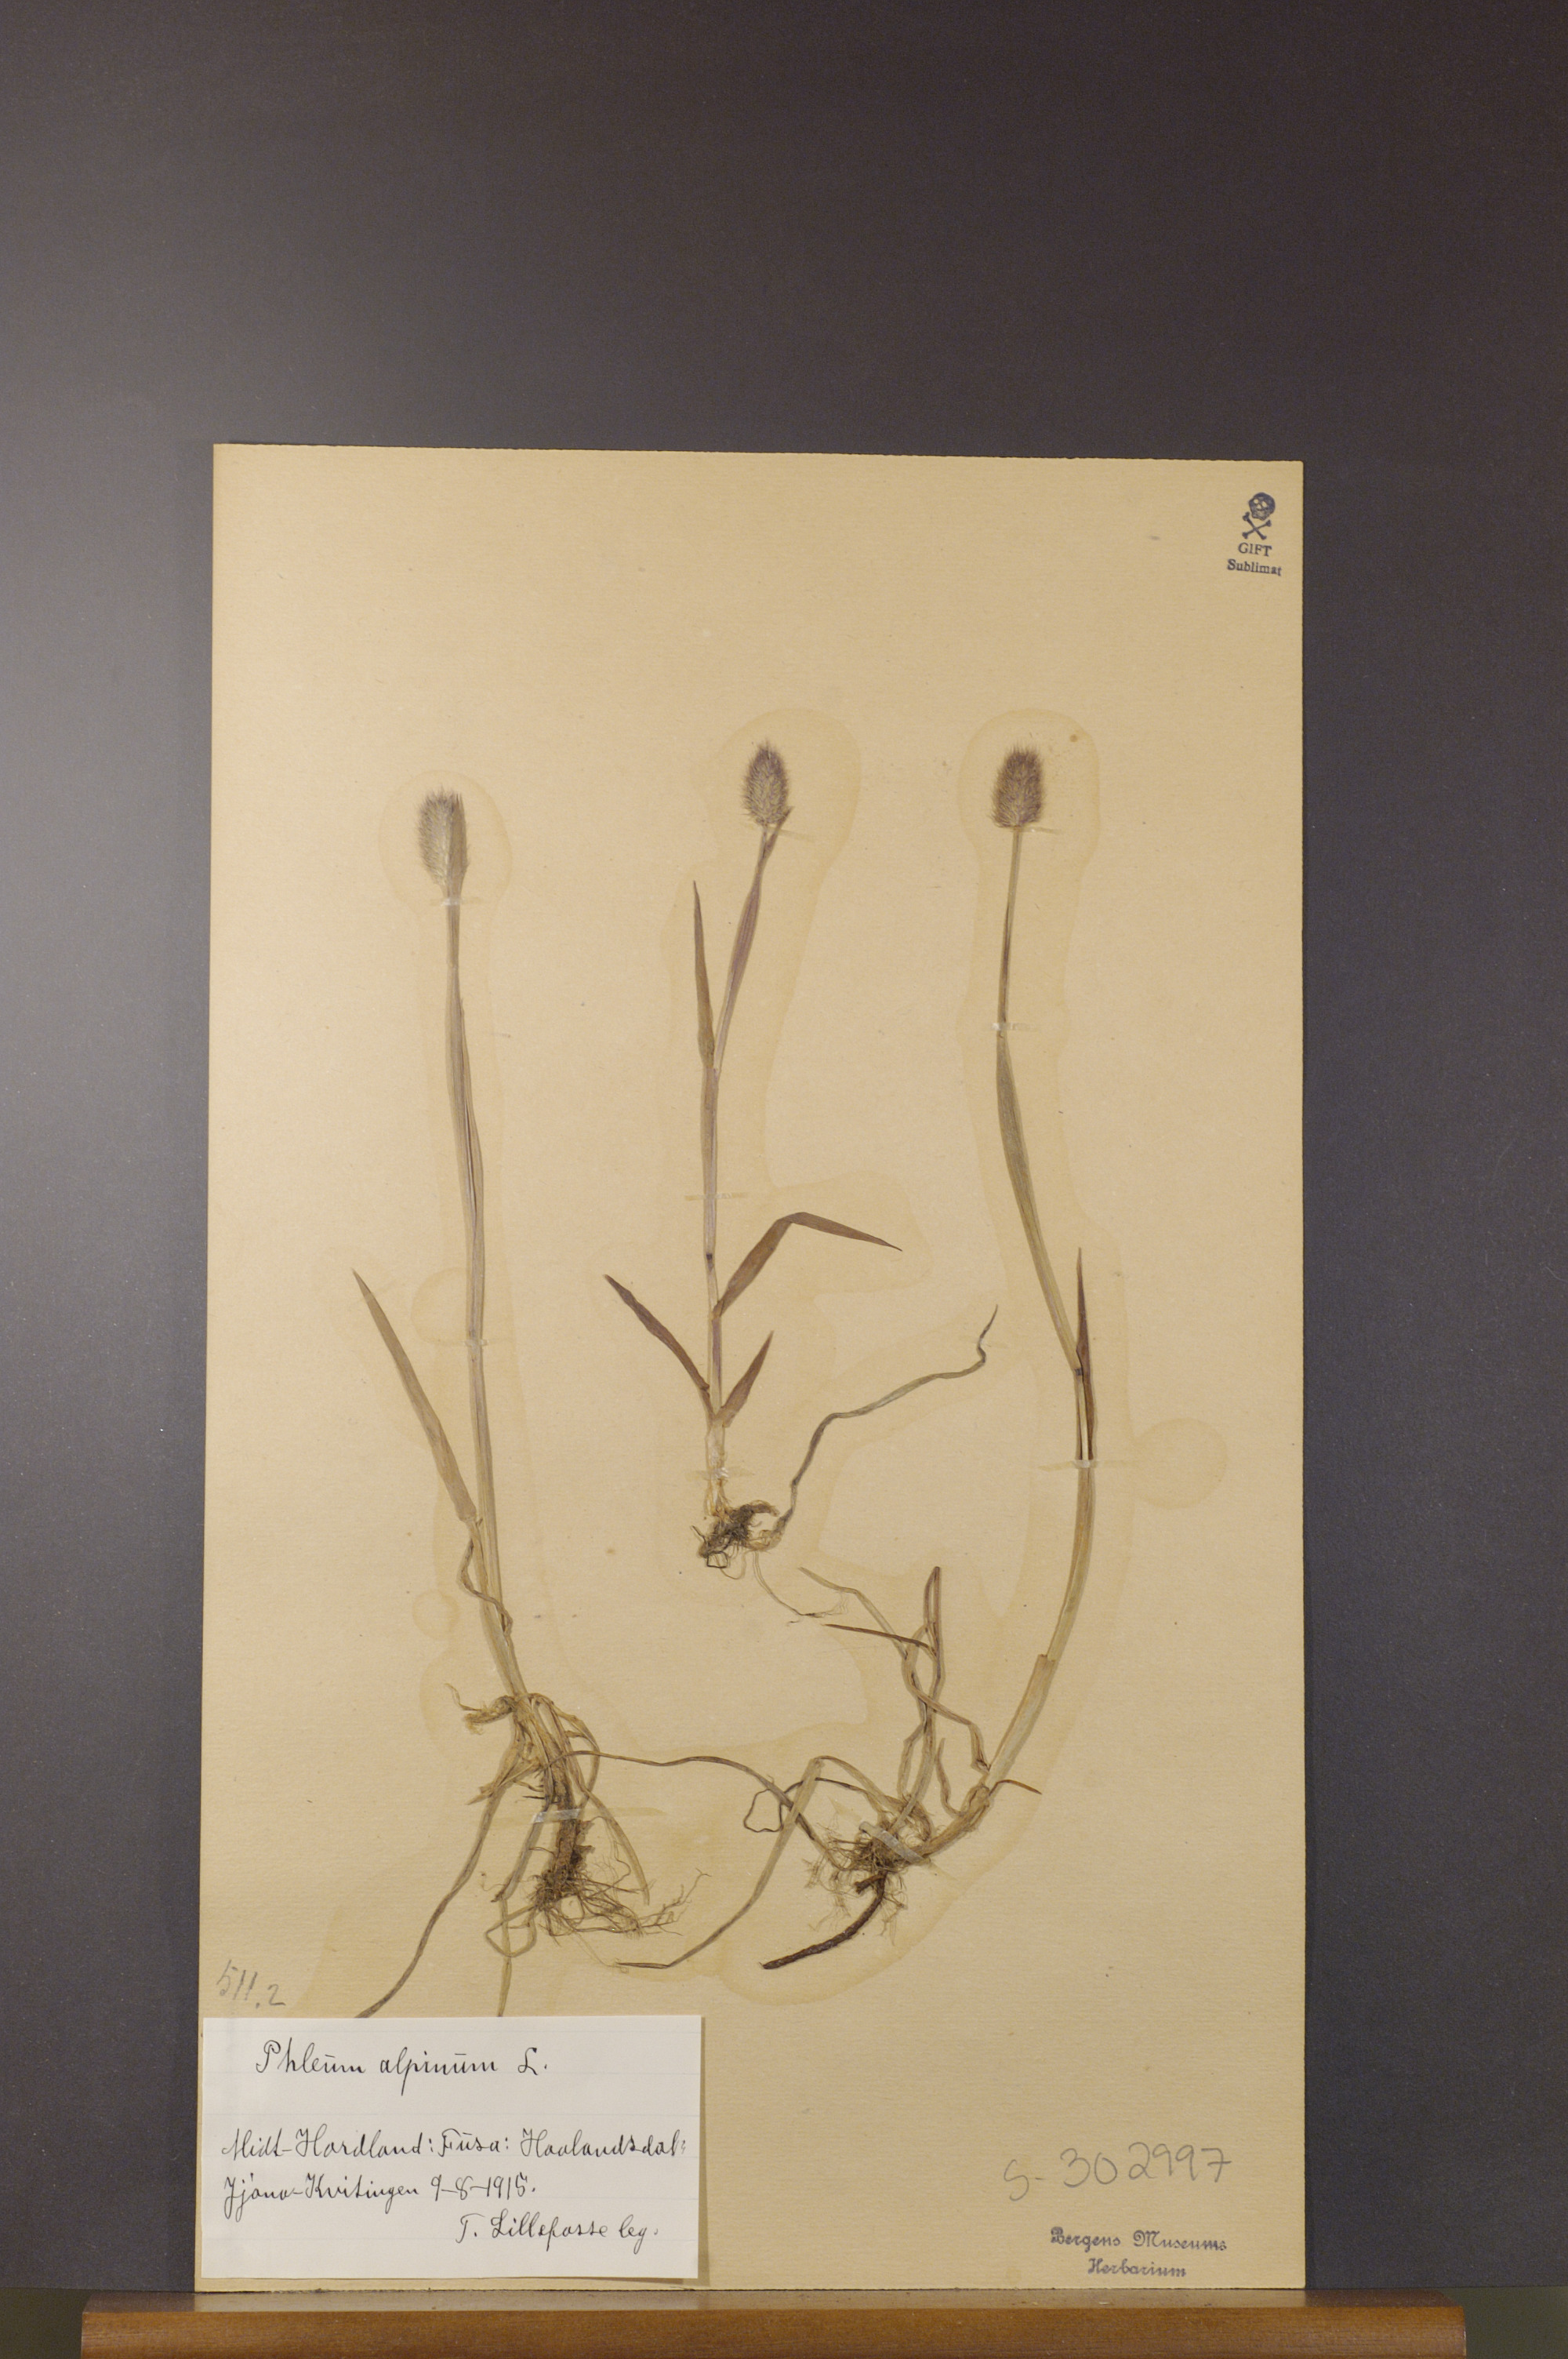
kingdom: Plantae
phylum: Tracheophyta
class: Liliopsida
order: Poales
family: Poaceae
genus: Phleum
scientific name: Phleum alpinum
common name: Alpine cat's-tail
